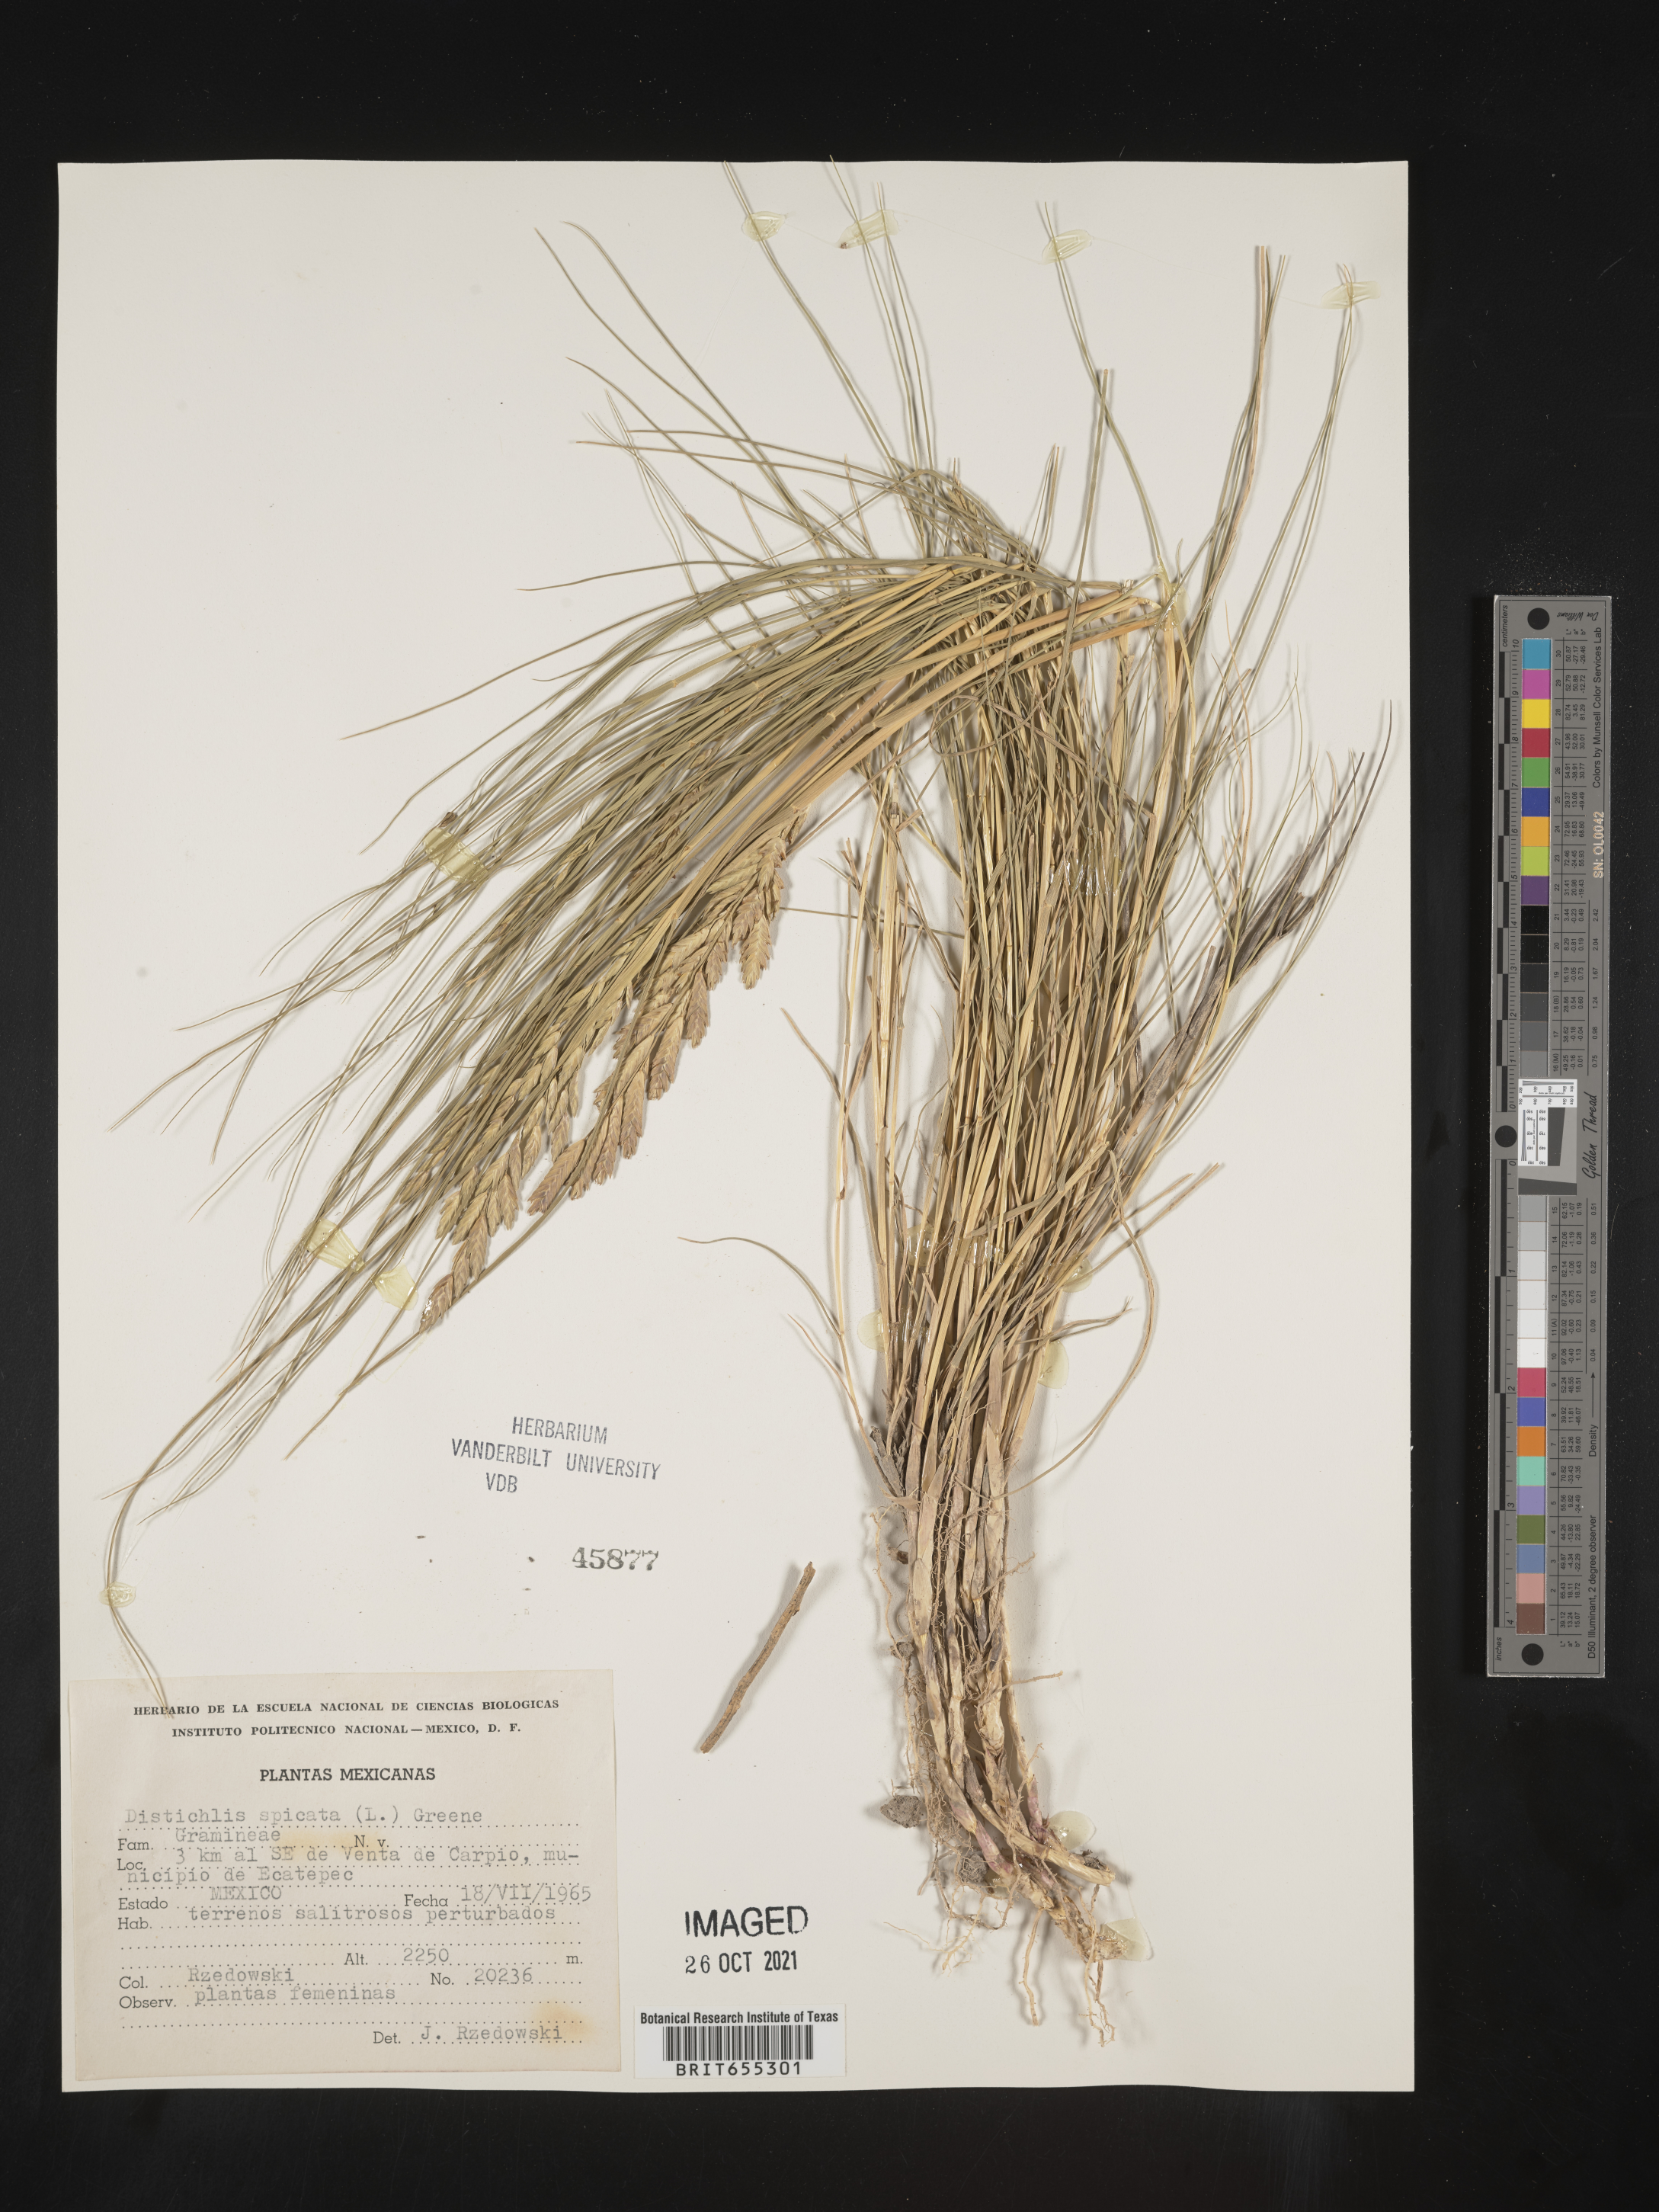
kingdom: Plantae
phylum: Tracheophyta
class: Liliopsida
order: Poales
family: Poaceae
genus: Distichlis
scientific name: Distichlis
